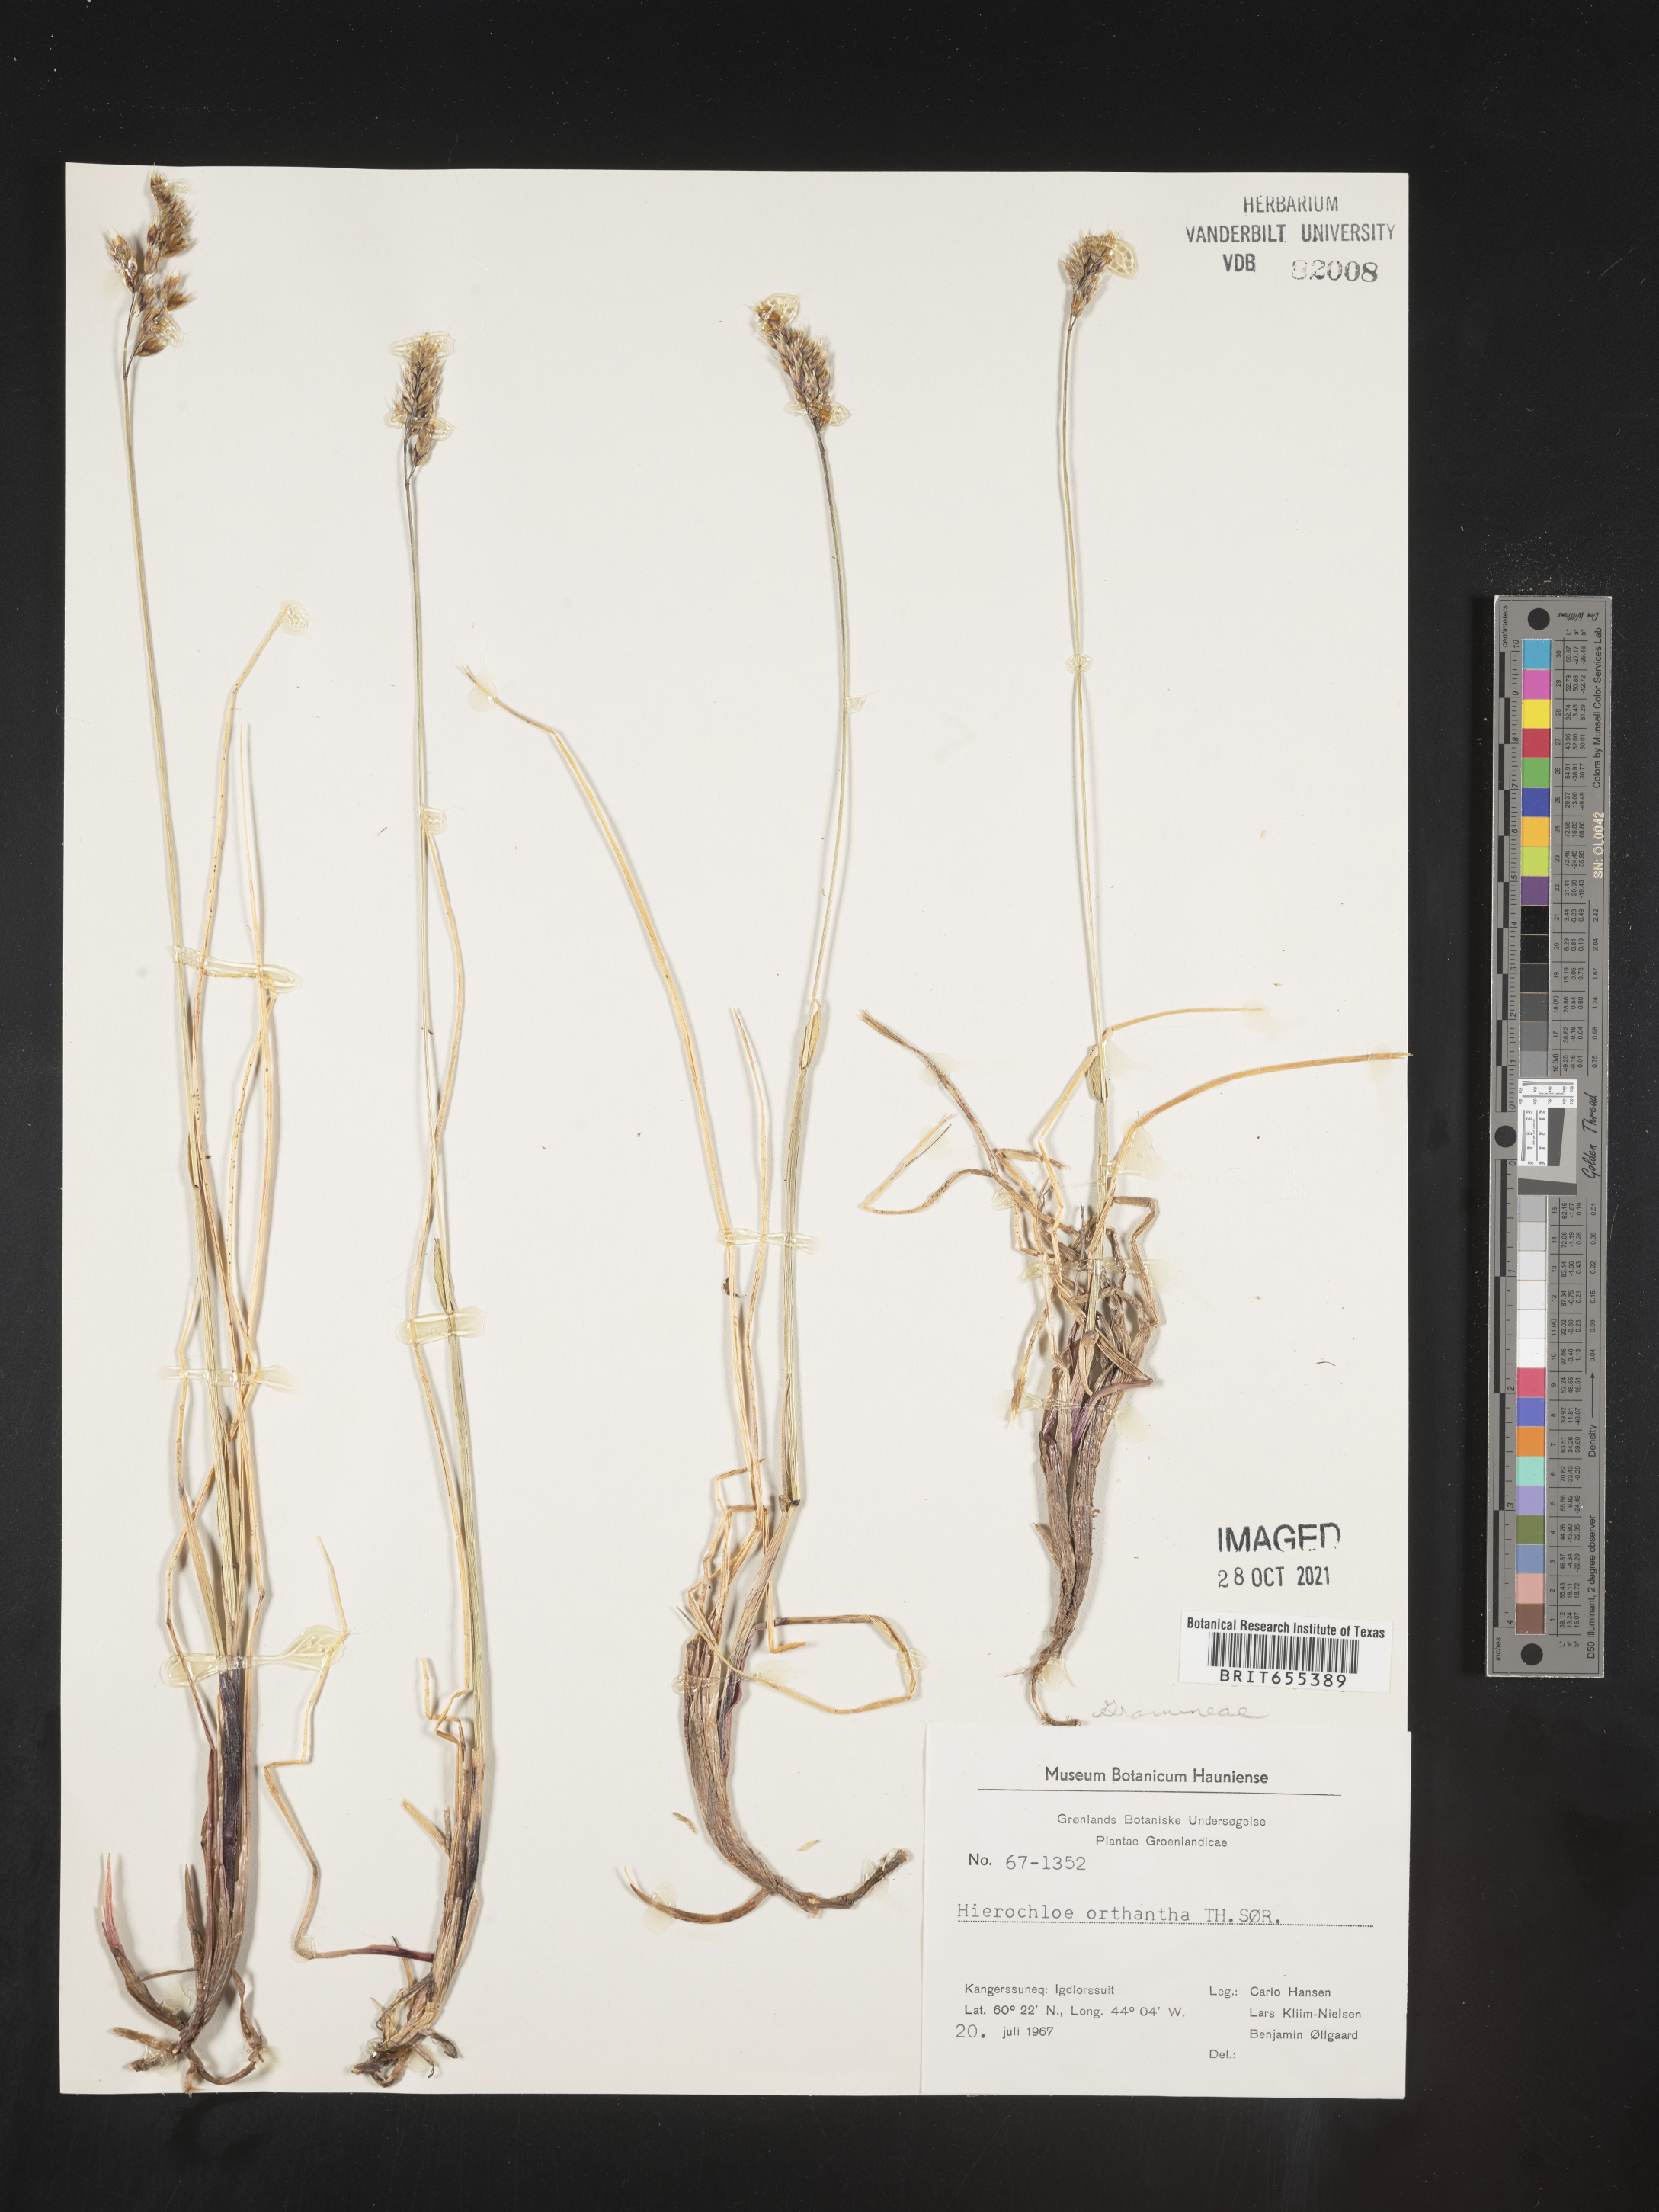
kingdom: Plantae
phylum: Tracheophyta
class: Liliopsida
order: Poales
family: Poaceae
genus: Hierochloe
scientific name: Hierochloe
